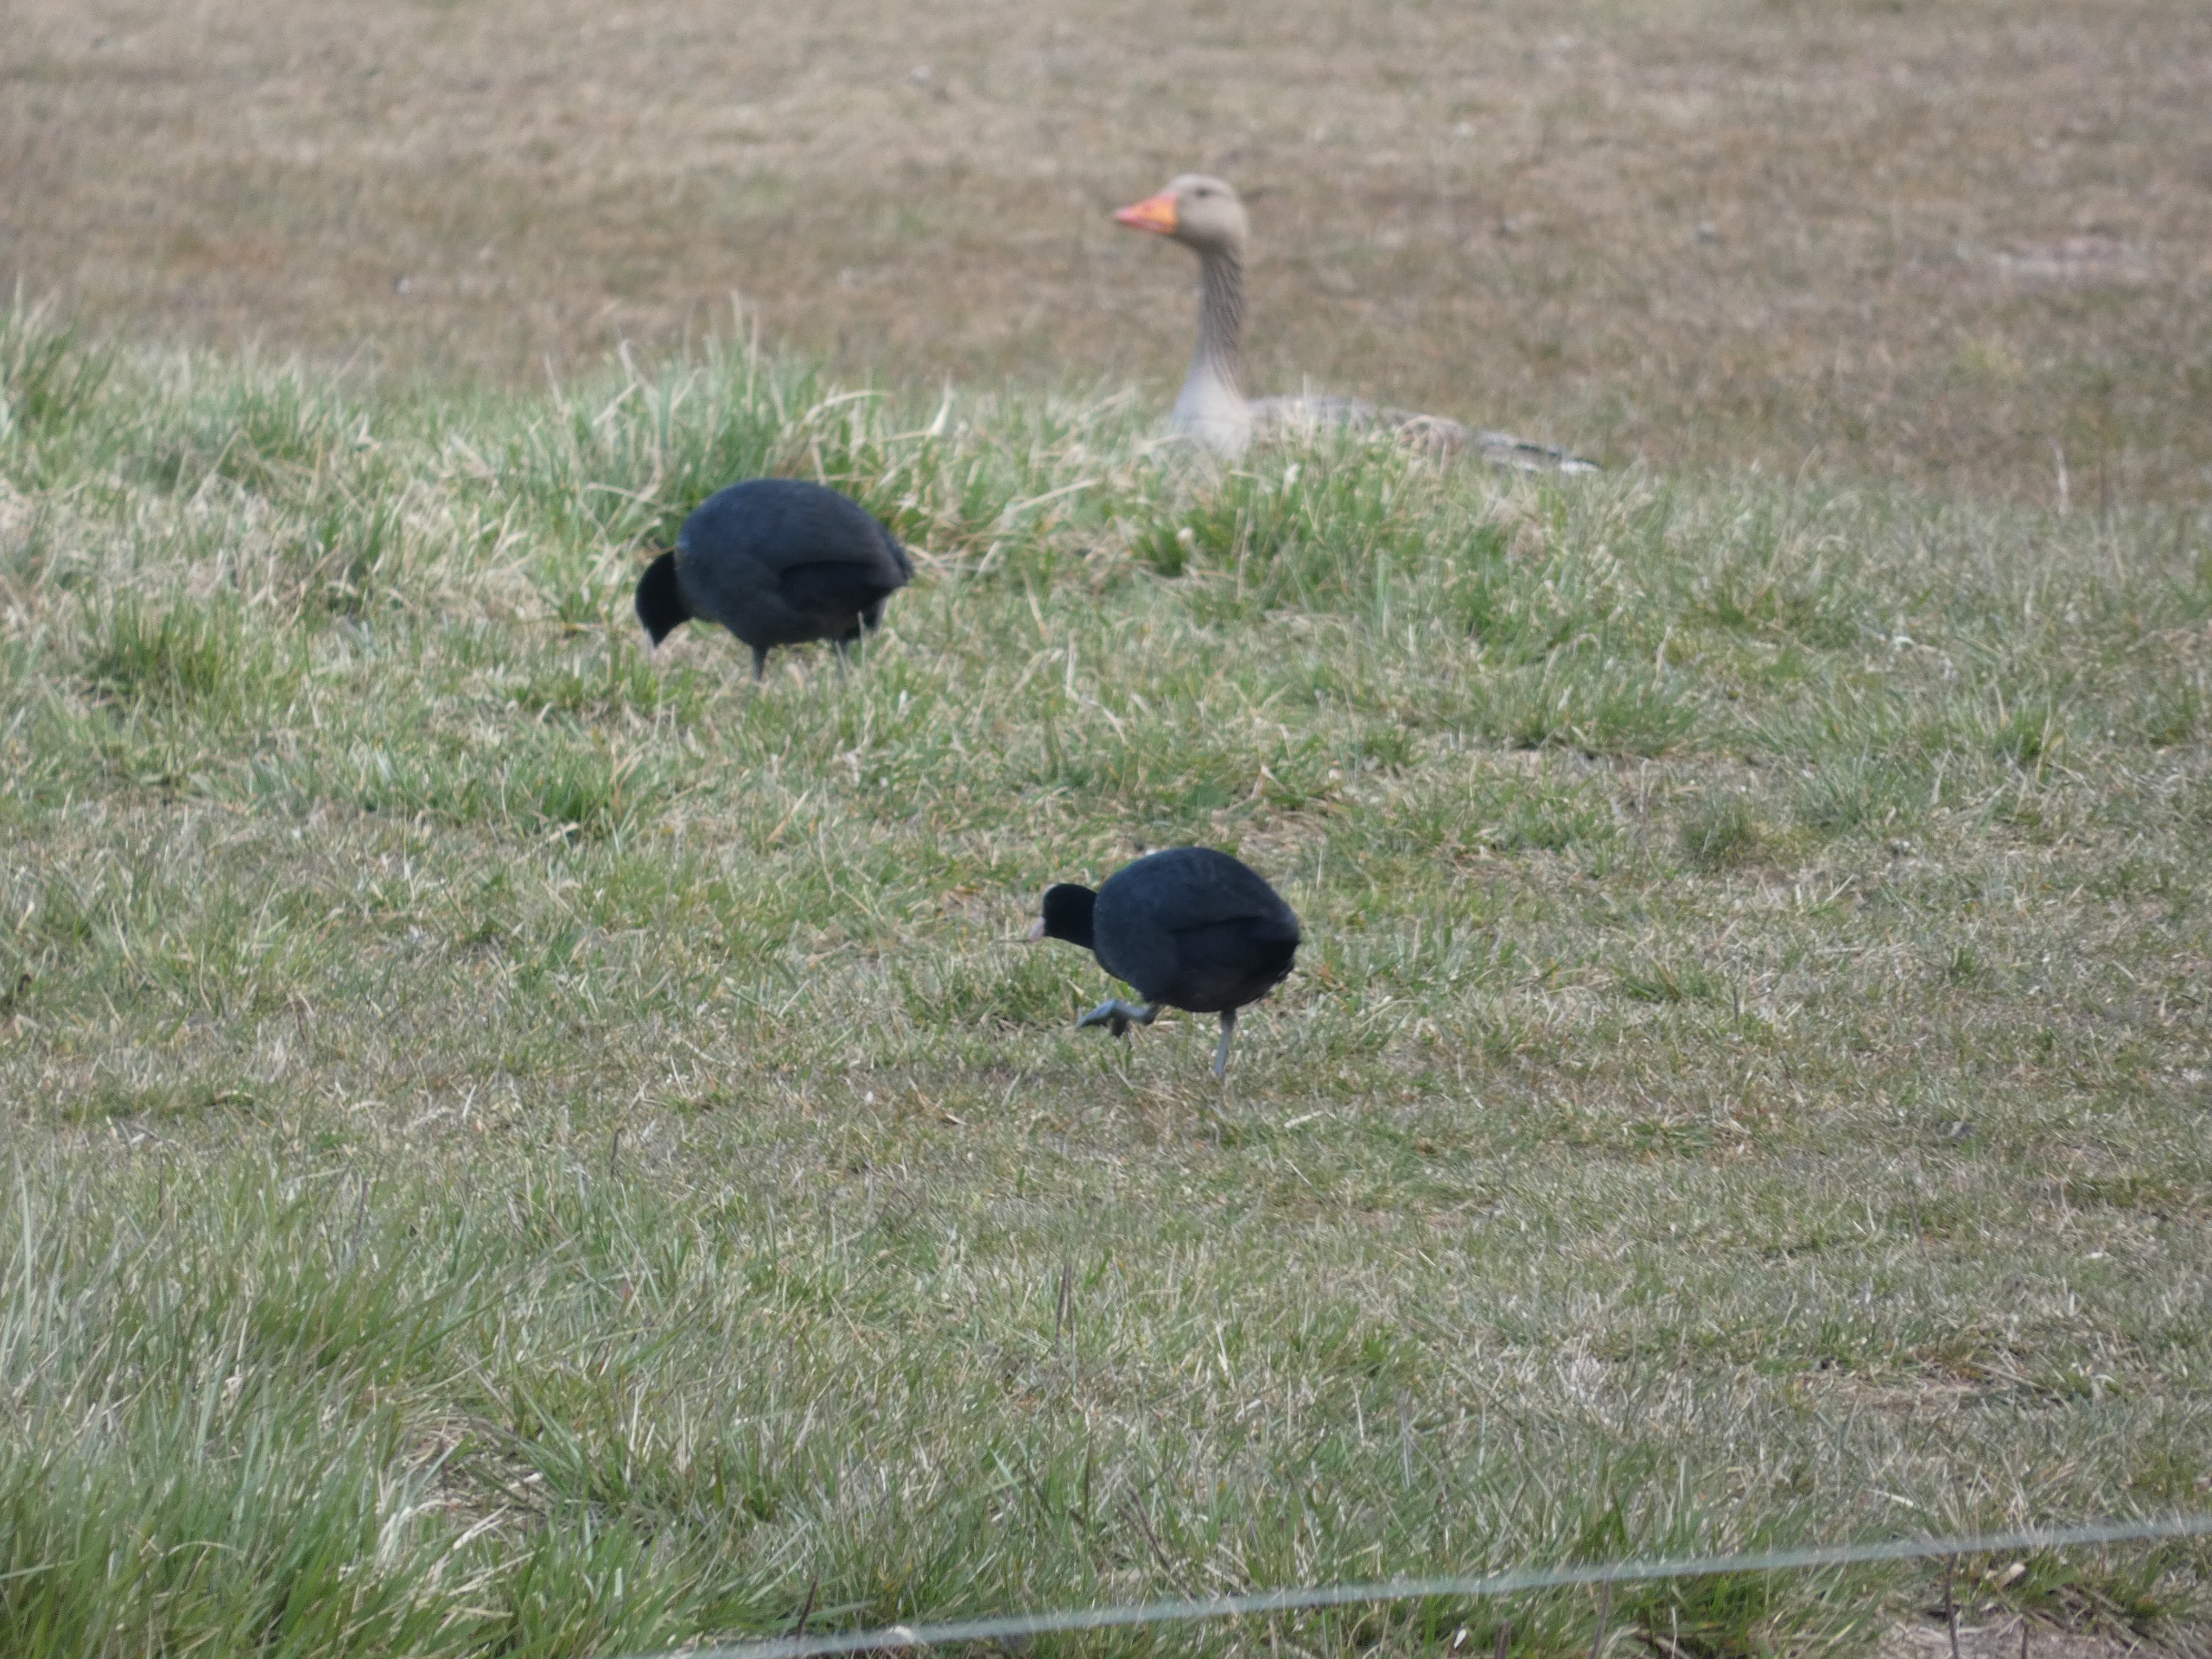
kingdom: Animalia
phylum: Chordata
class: Aves
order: Gruiformes
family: Rallidae
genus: Fulica
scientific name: Fulica atra
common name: Blishøne
